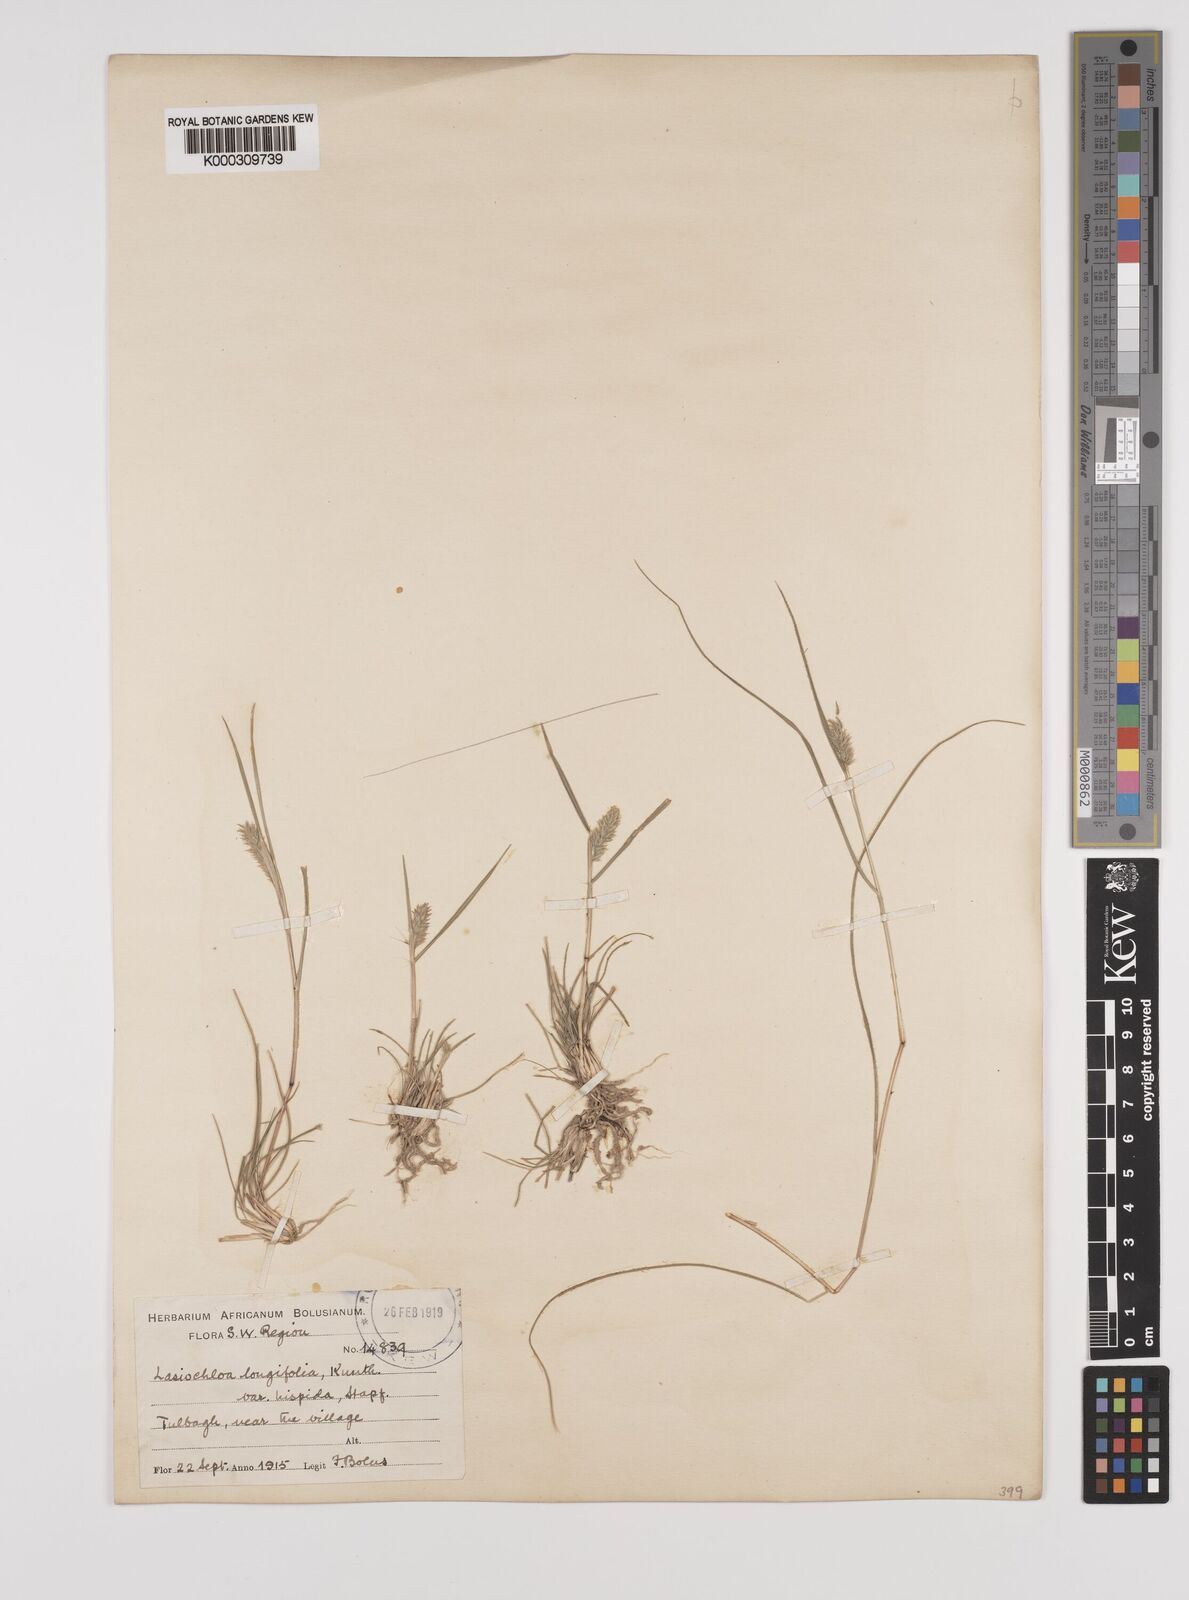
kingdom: Plantae
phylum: Tracheophyta
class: Liliopsida
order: Poales
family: Poaceae
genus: Tribolium
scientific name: Tribolium hispidum
